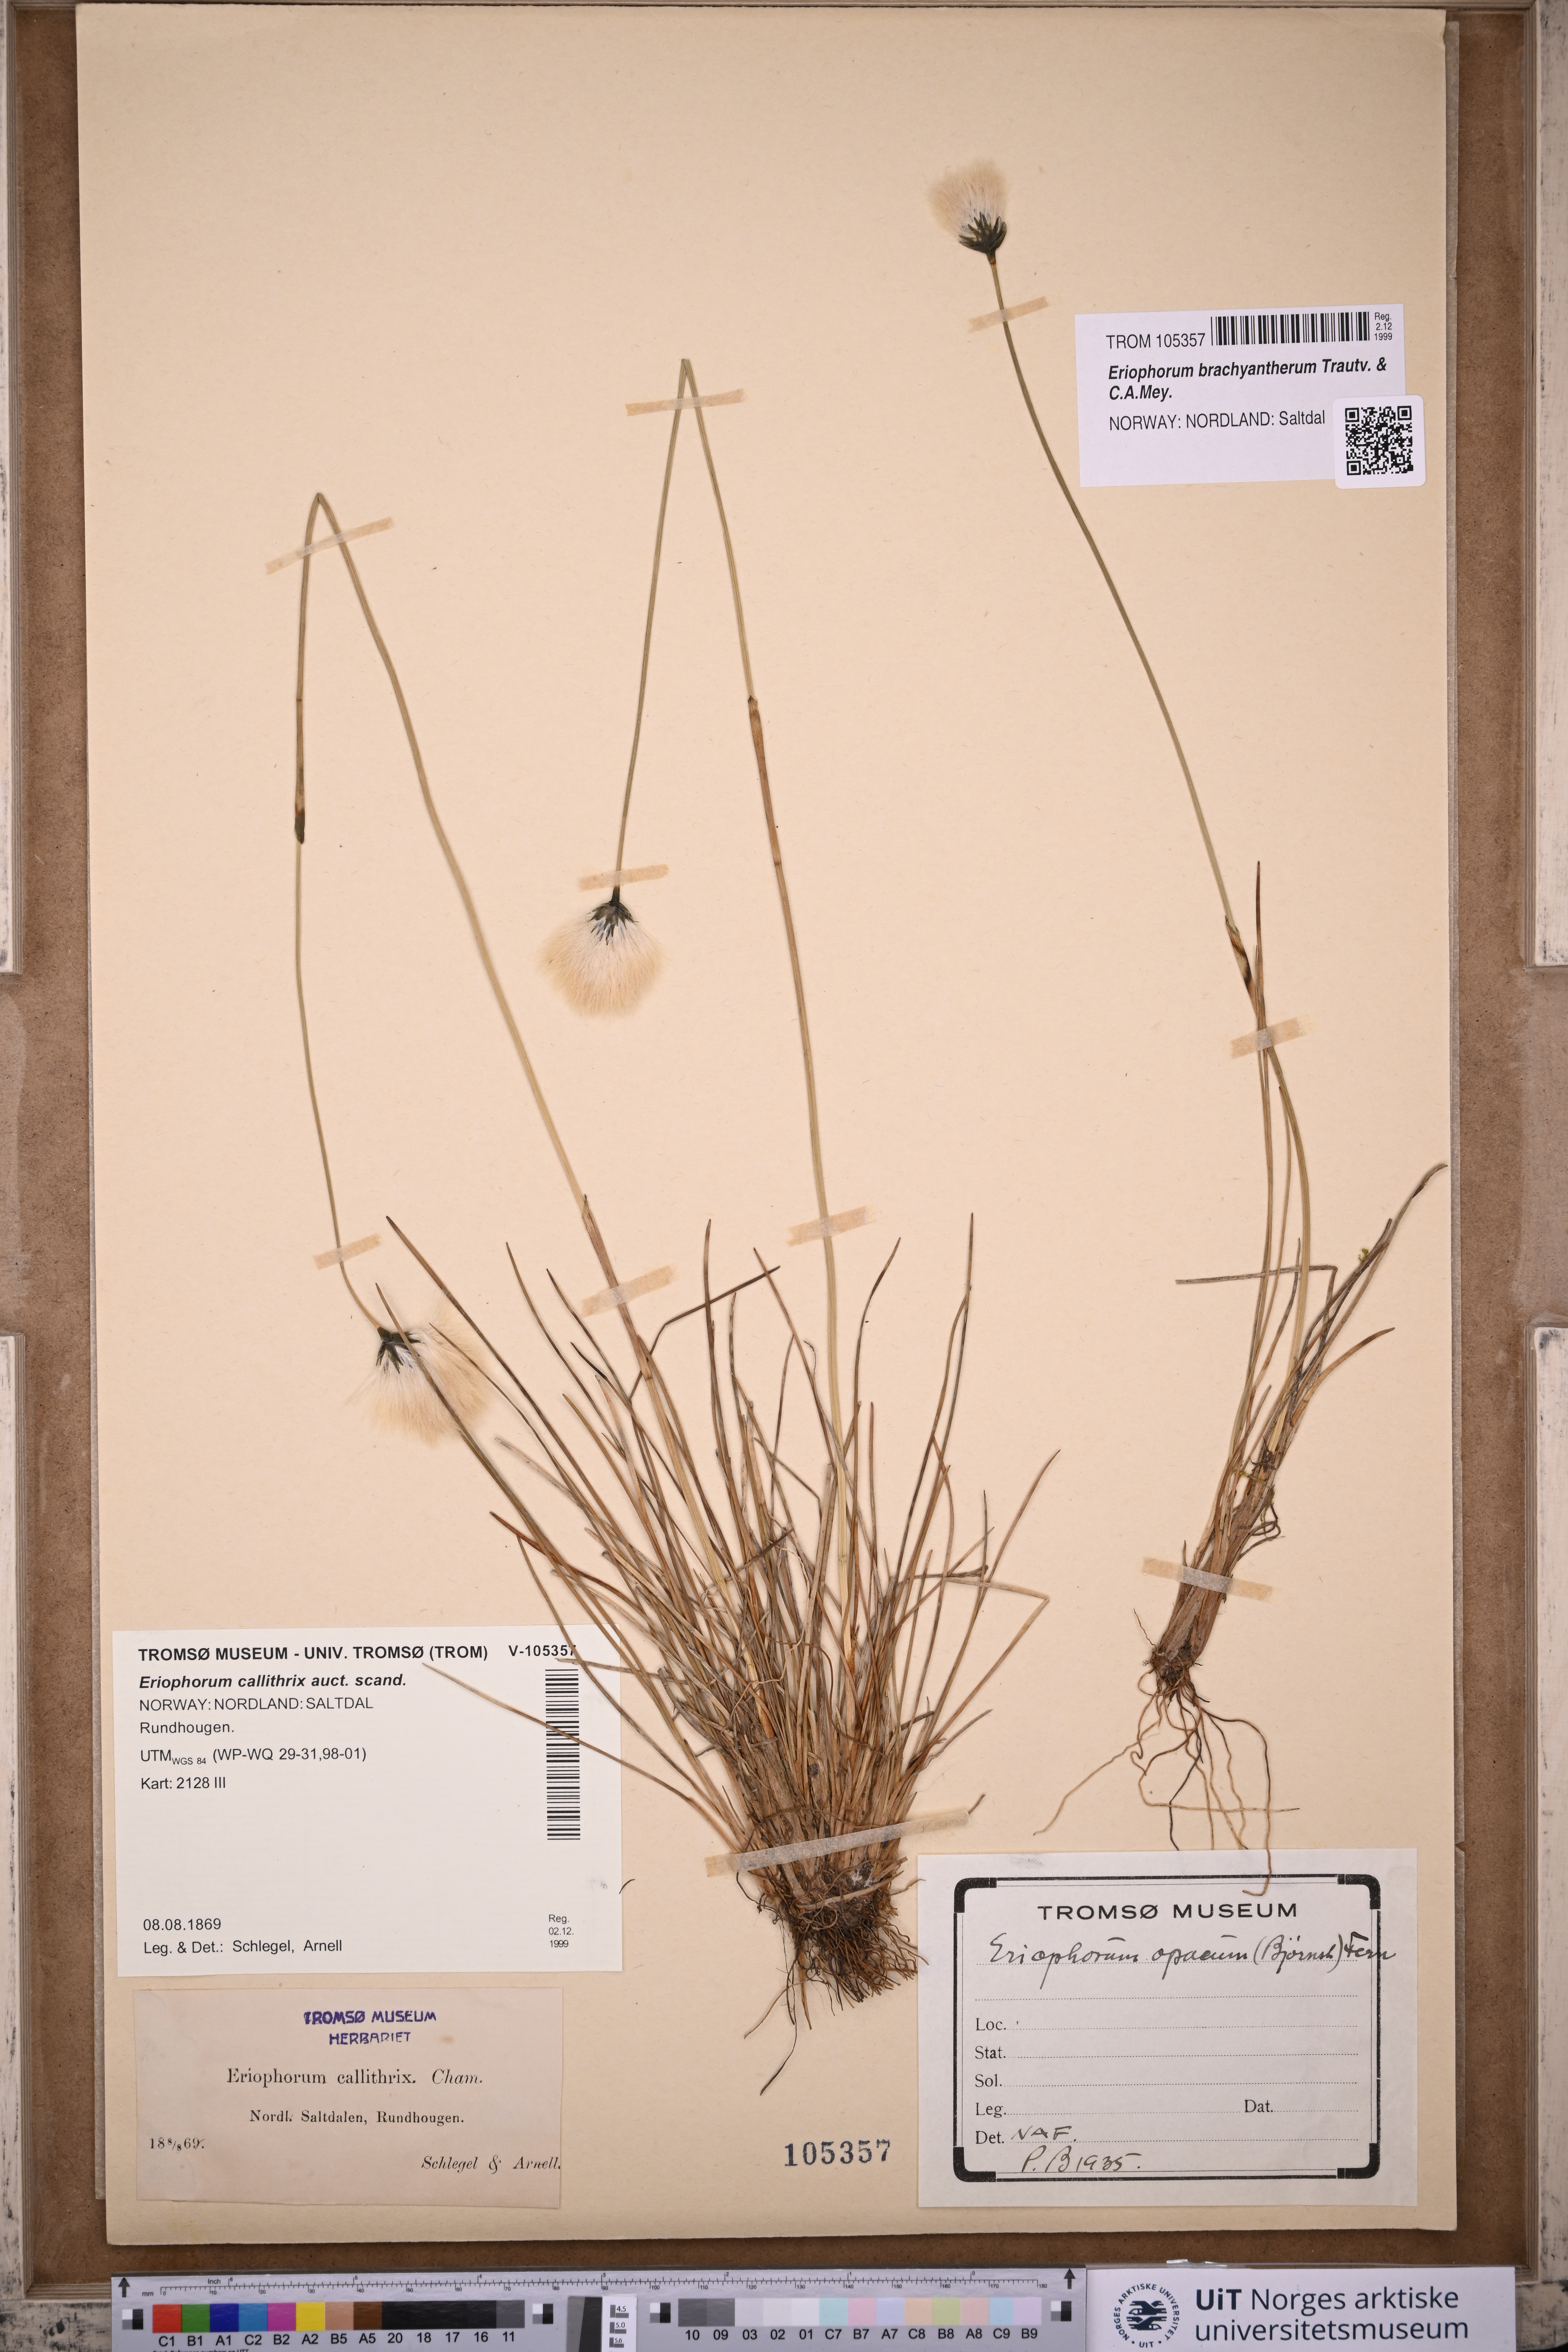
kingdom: Plantae
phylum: Tracheophyta
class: Liliopsida
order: Poales
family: Cyperaceae
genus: Eriophorum
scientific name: Eriophorum brachyantherum
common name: Closed-sheathed cottongrass
